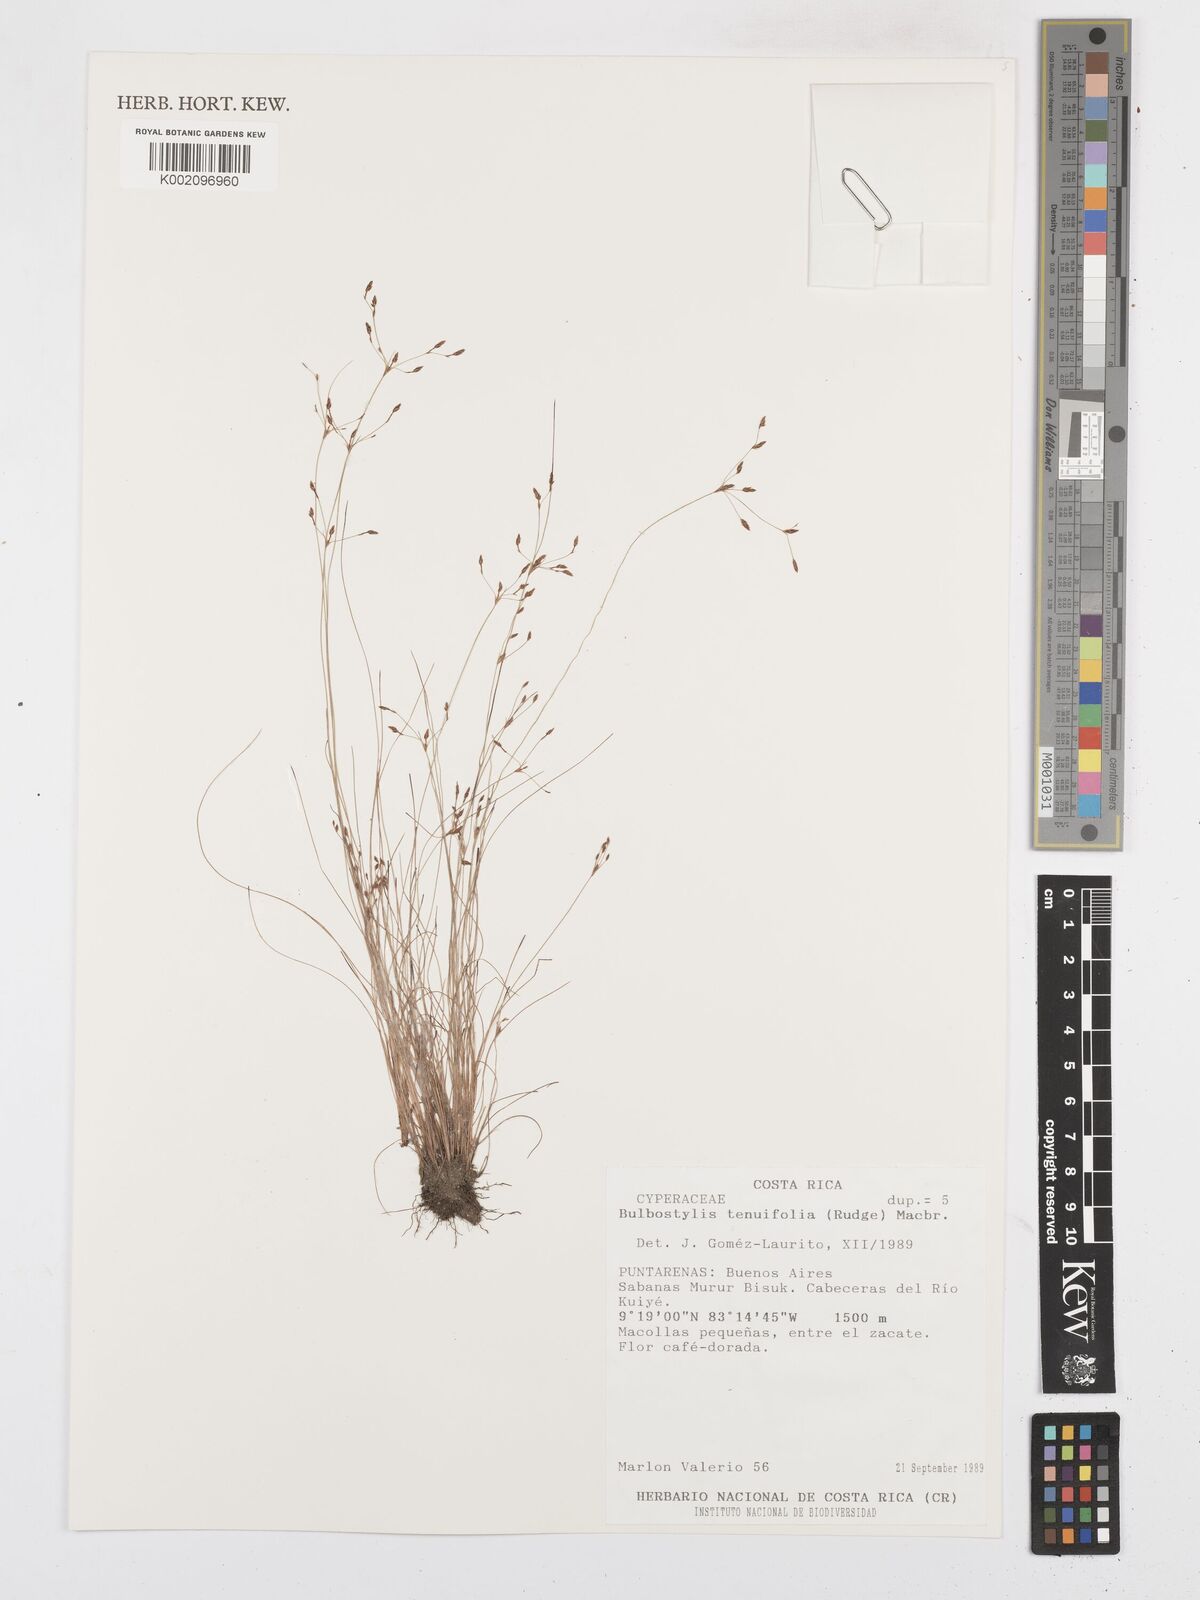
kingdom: Plantae
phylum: Tracheophyta
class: Liliopsida
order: Poales
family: Cyperaceae
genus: Bulbostylis
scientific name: Bulbostylis tenuifolia
